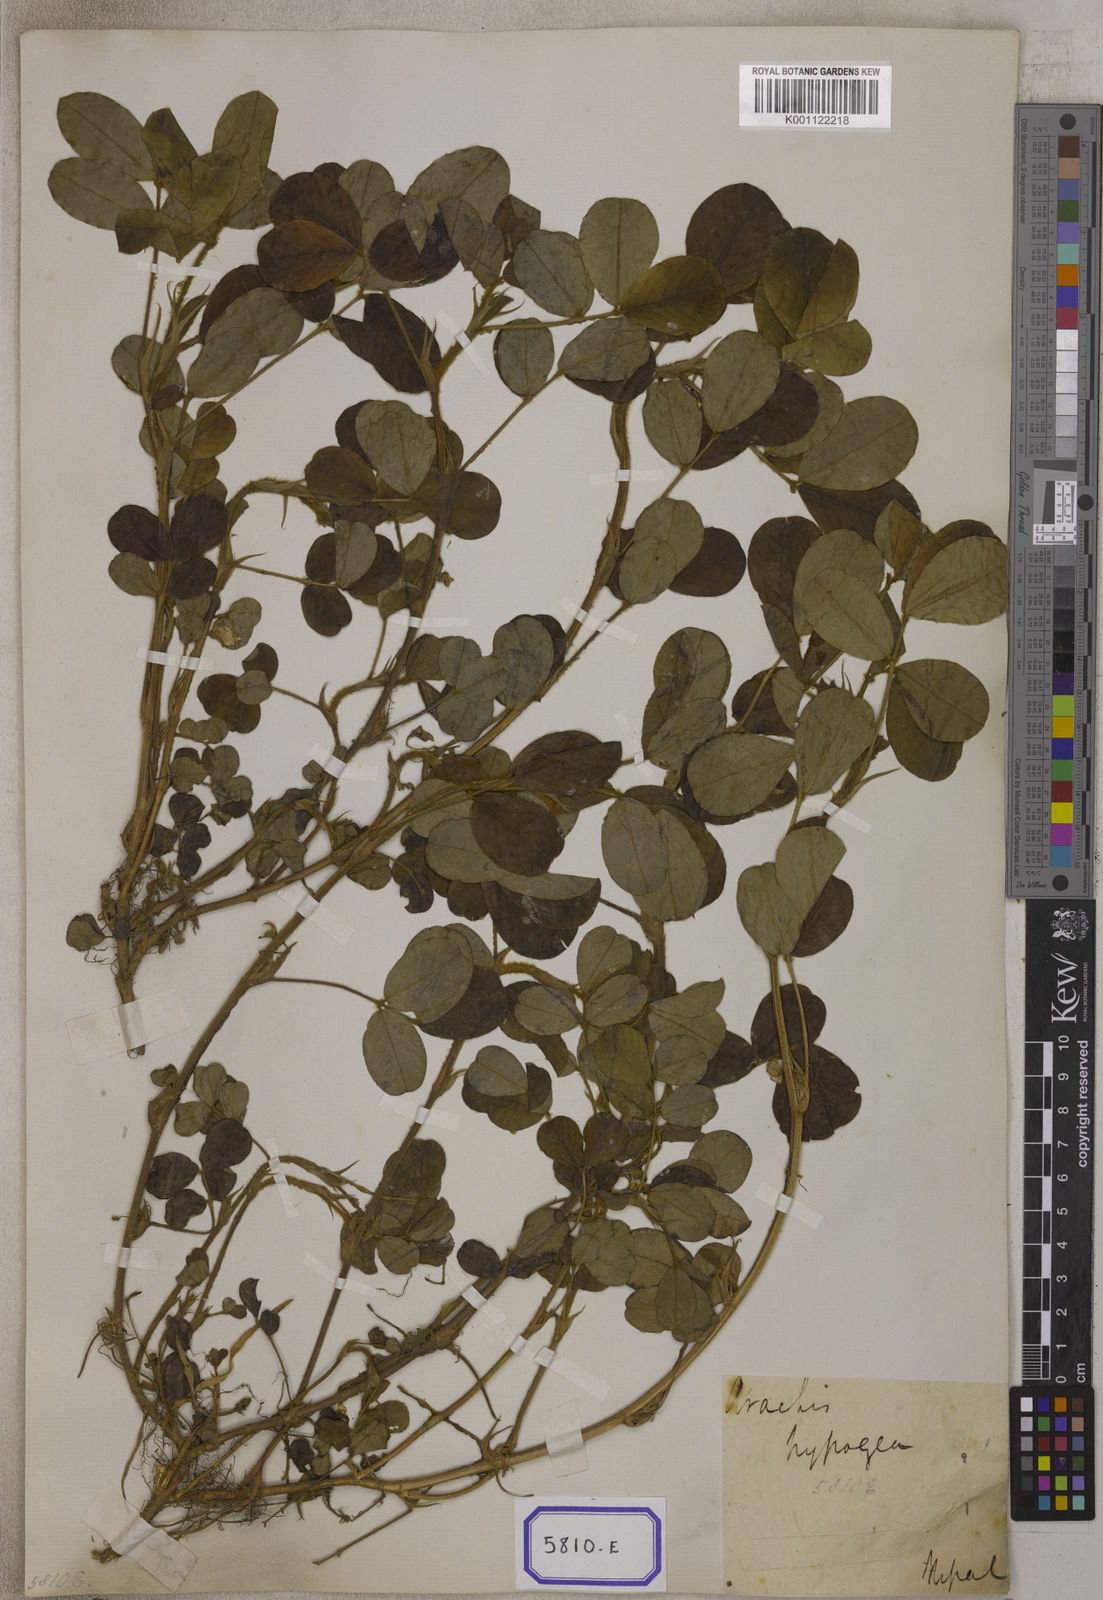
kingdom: Plantae
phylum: Tracheophyta
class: Magnoliopsida
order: Fabales
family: Fabaceae
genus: Arachis
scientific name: Arachis hypogaea
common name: Peanut
